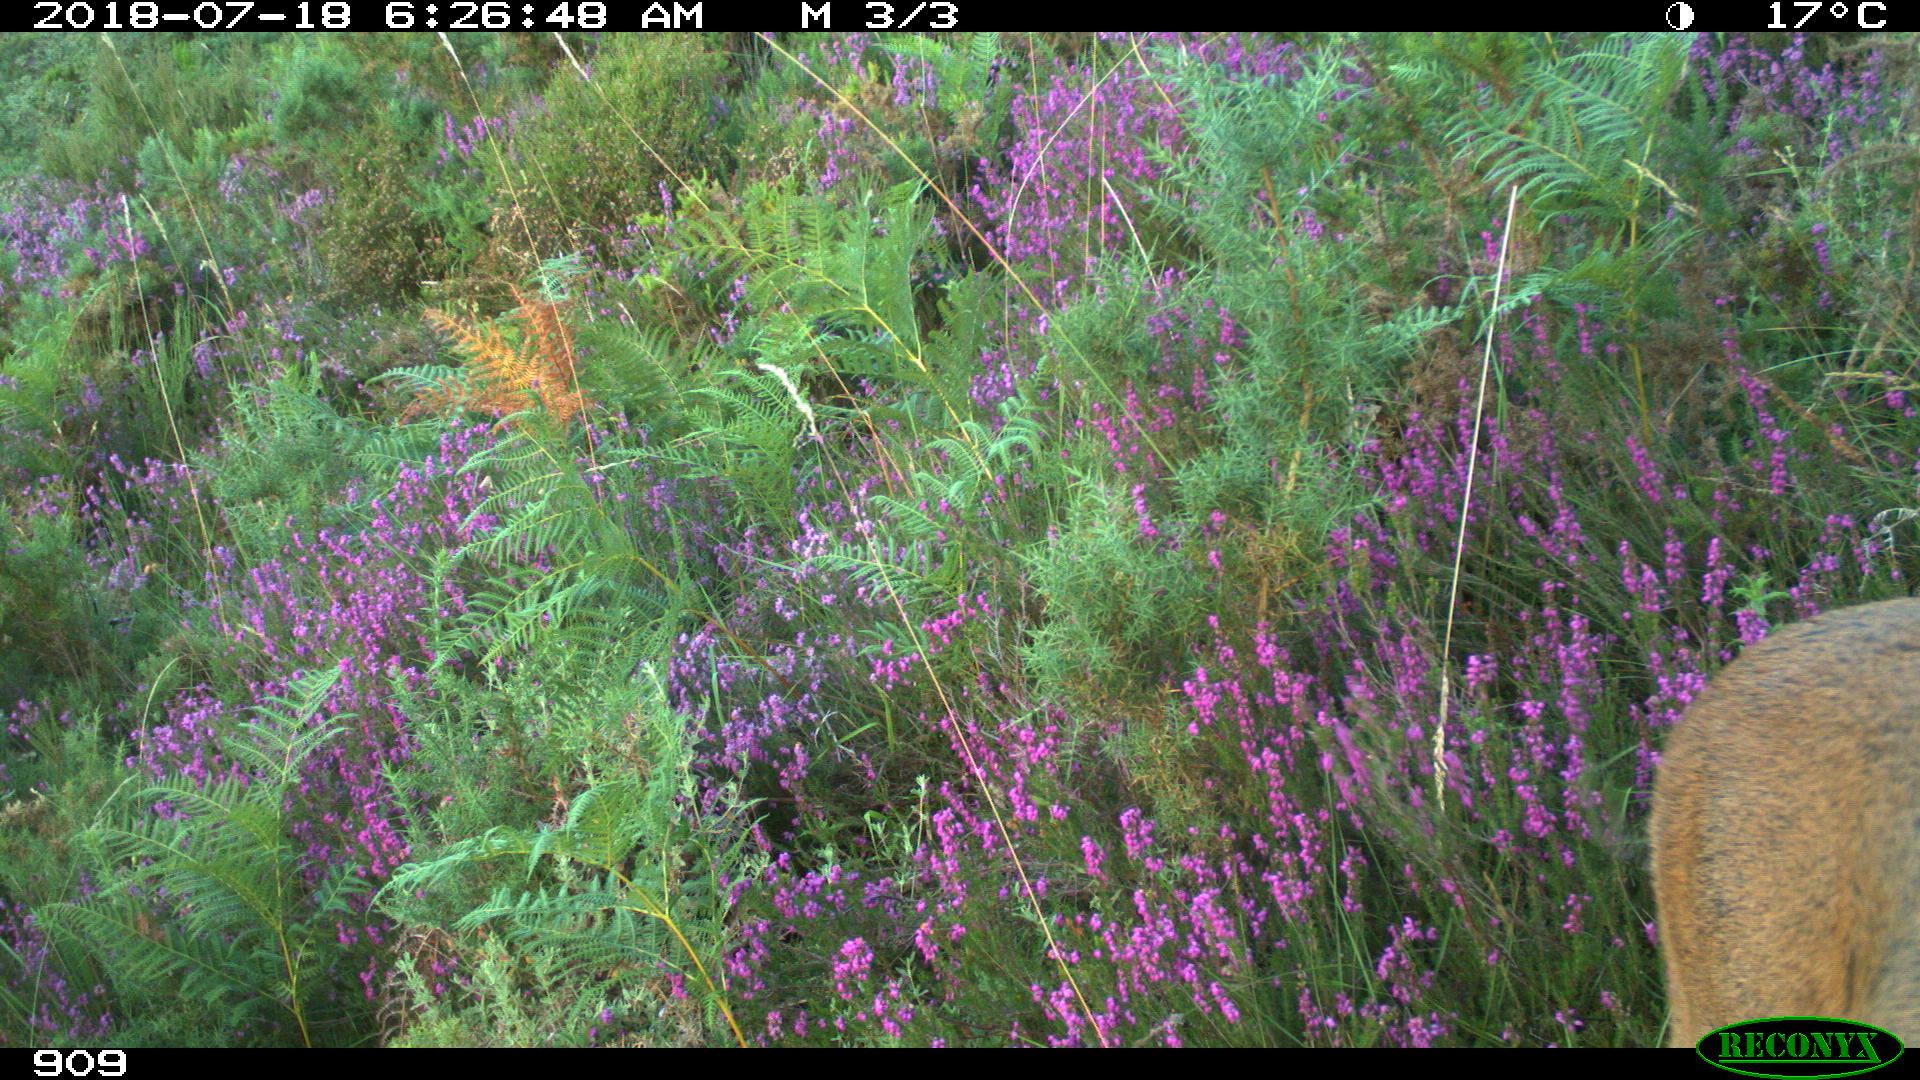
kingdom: Animalia
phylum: Chordata
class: Mammalia
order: Artiodactyla
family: Cervidae
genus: Capreolus
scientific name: Capreolus capreolus
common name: Western roe deer
